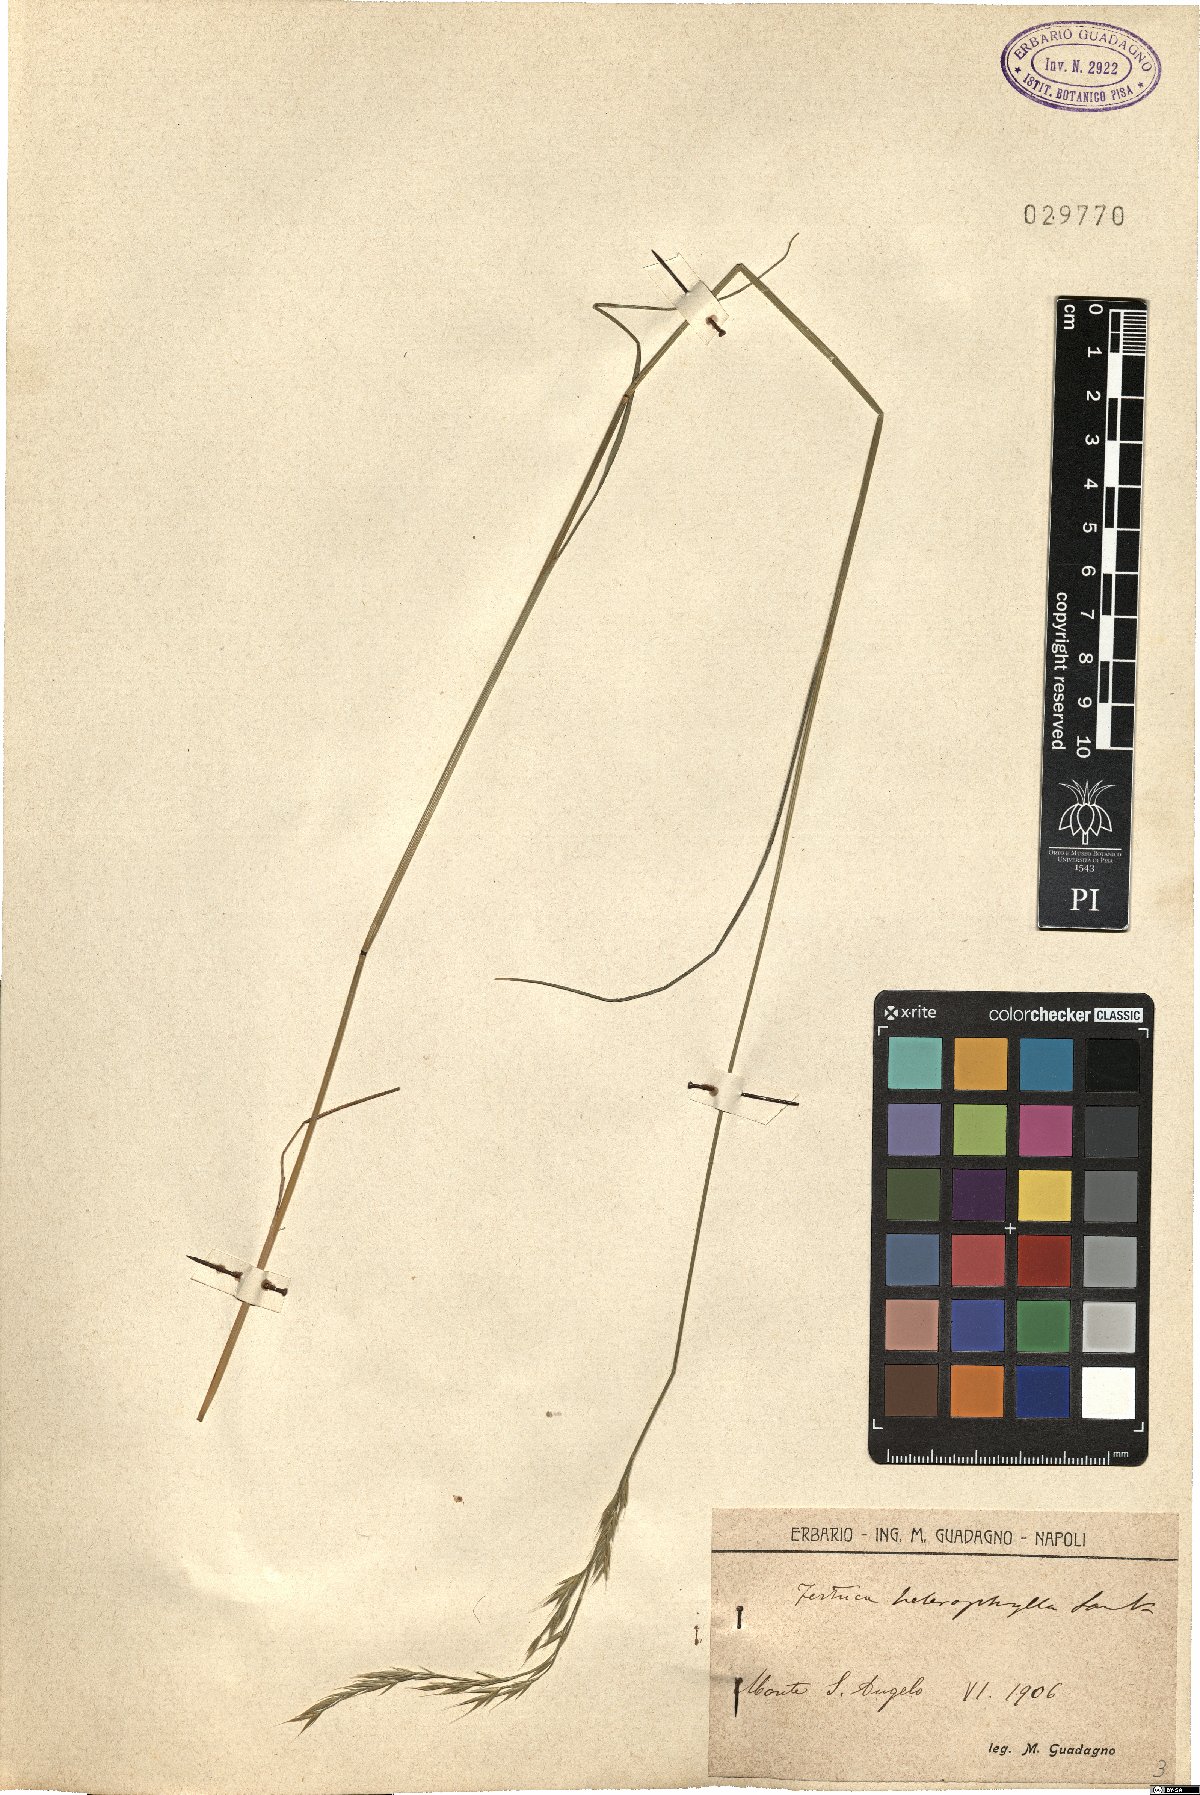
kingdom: Plantae
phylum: Tracheophyta
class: Liliopsida
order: Poales
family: Poaceae
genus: Festuca
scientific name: Festuca heterophylla
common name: Various-leaved fescue
